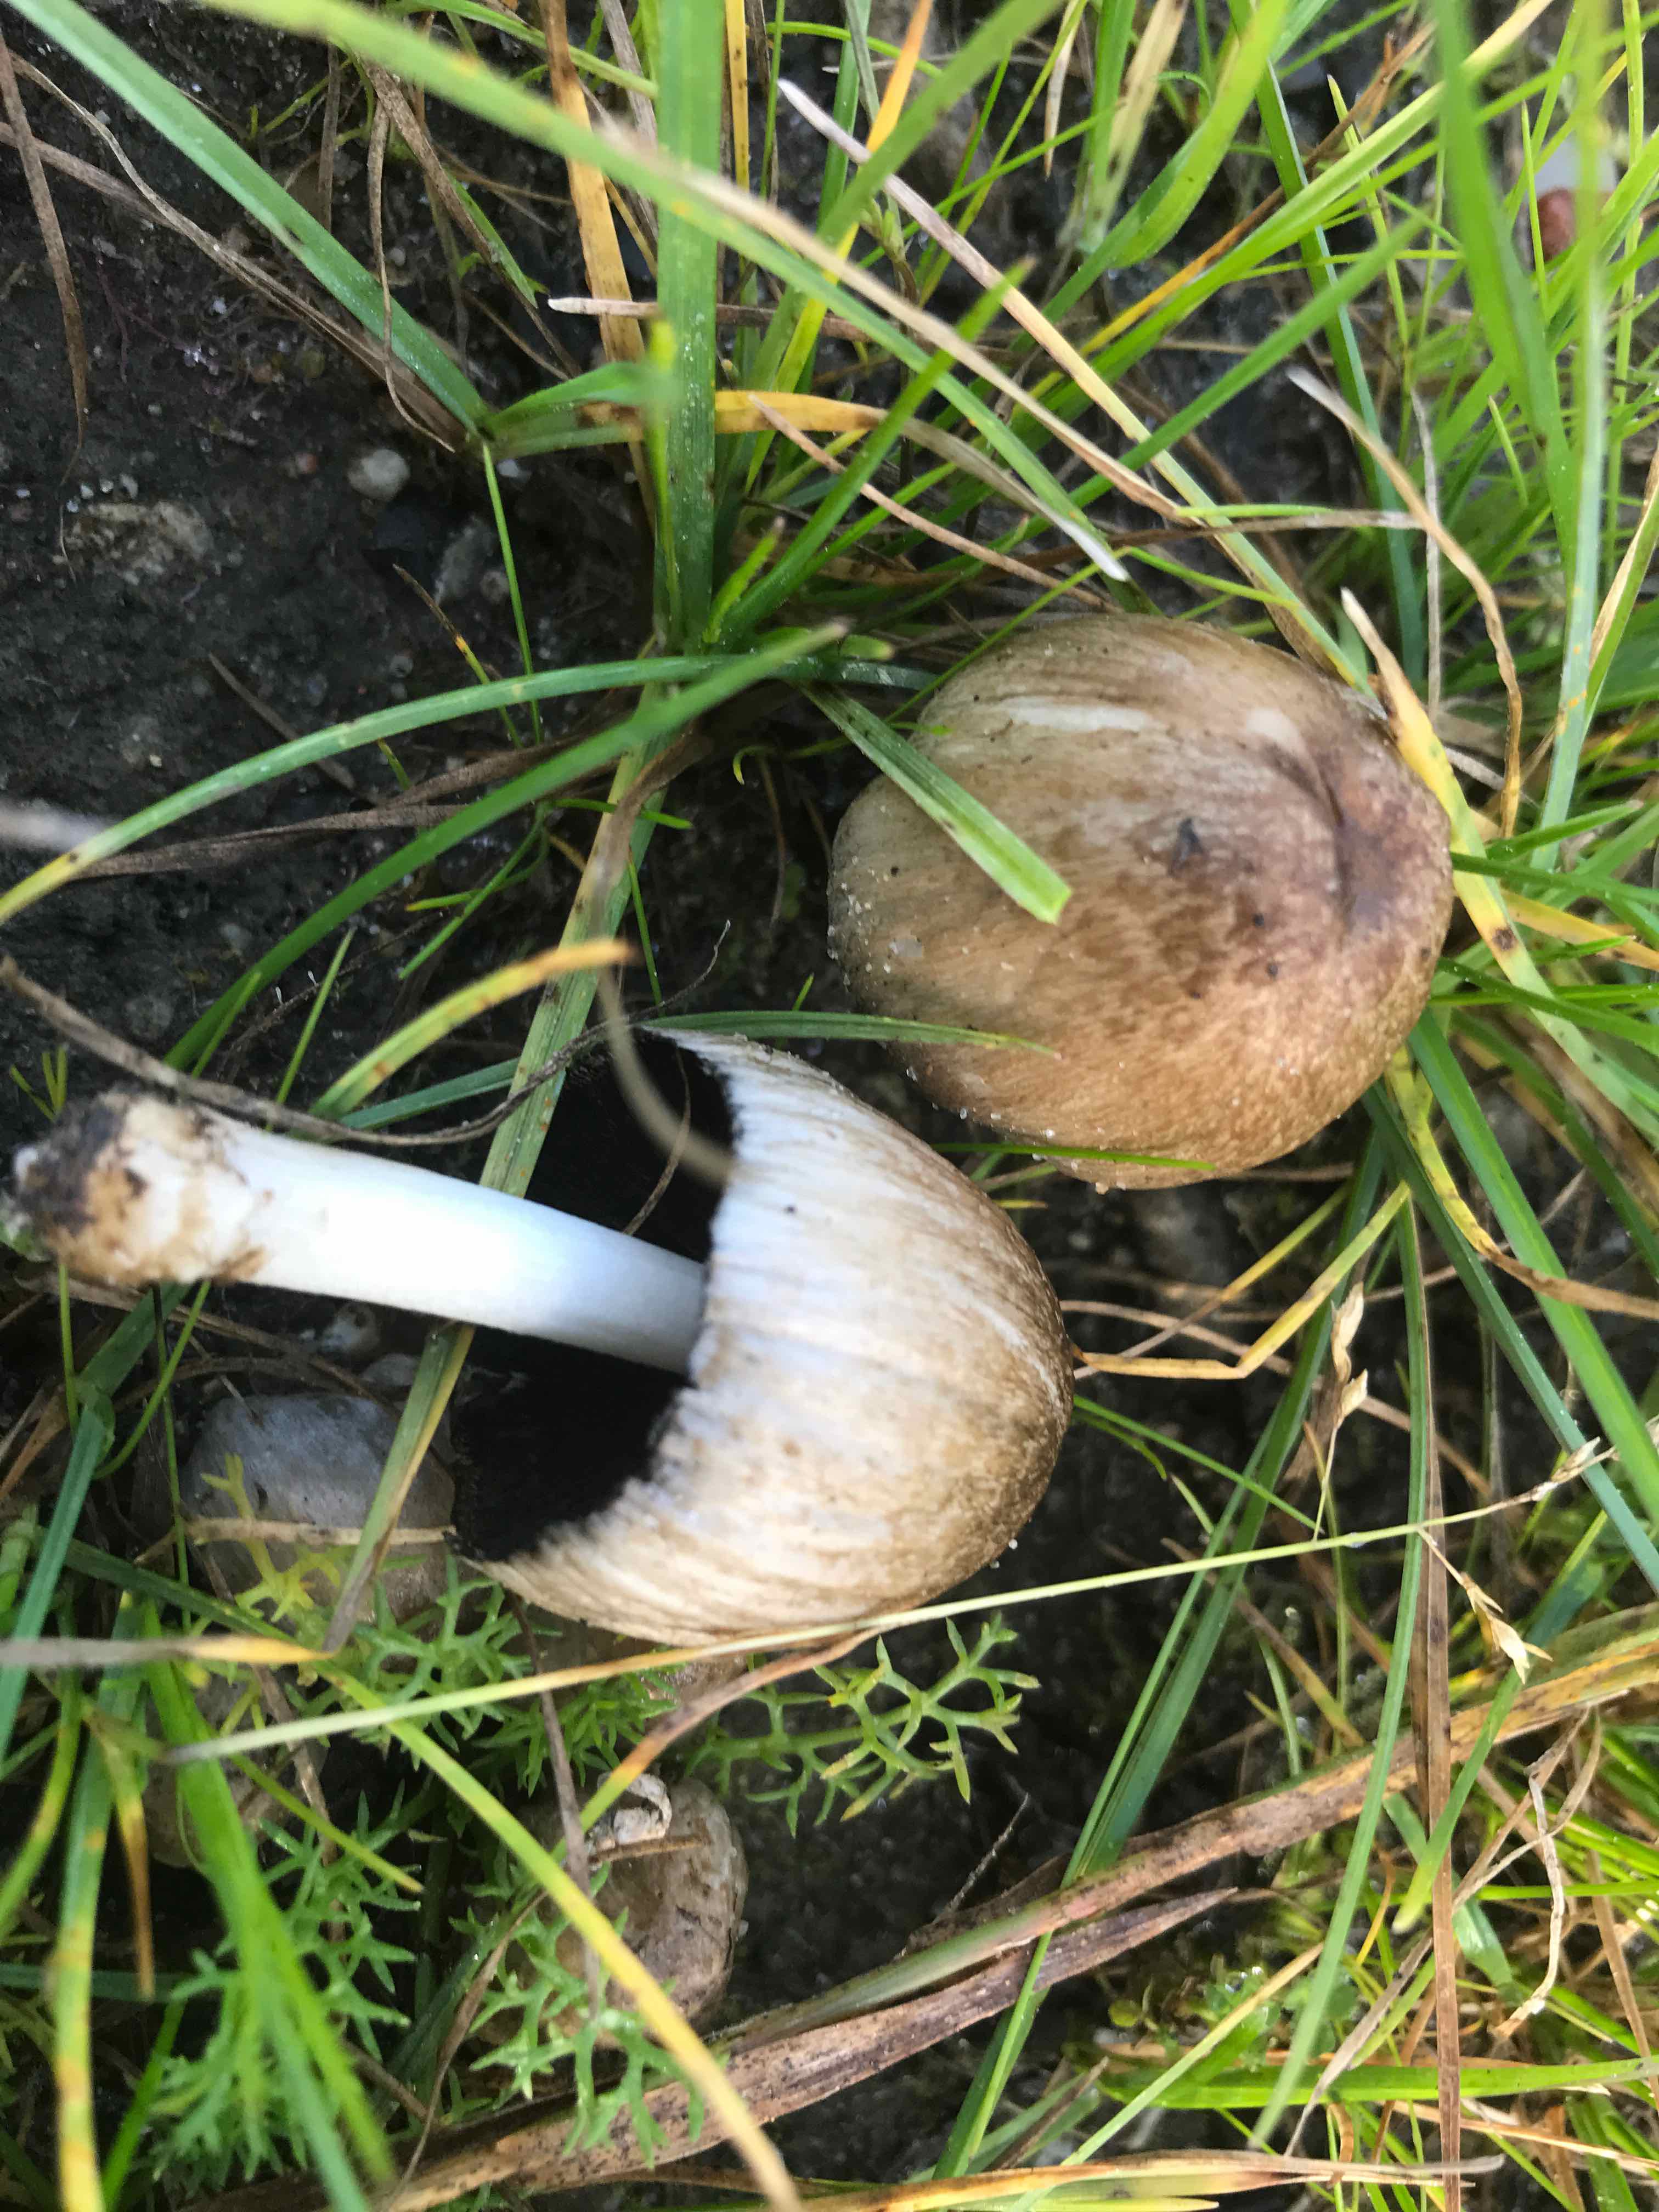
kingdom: Fungi
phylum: Basidiomycota
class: Agaricomycetes
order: Agaricales
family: Psathyrellaceae
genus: Coprinopsis
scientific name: Coprinopsis atramentaria
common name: almindelig blækhat
